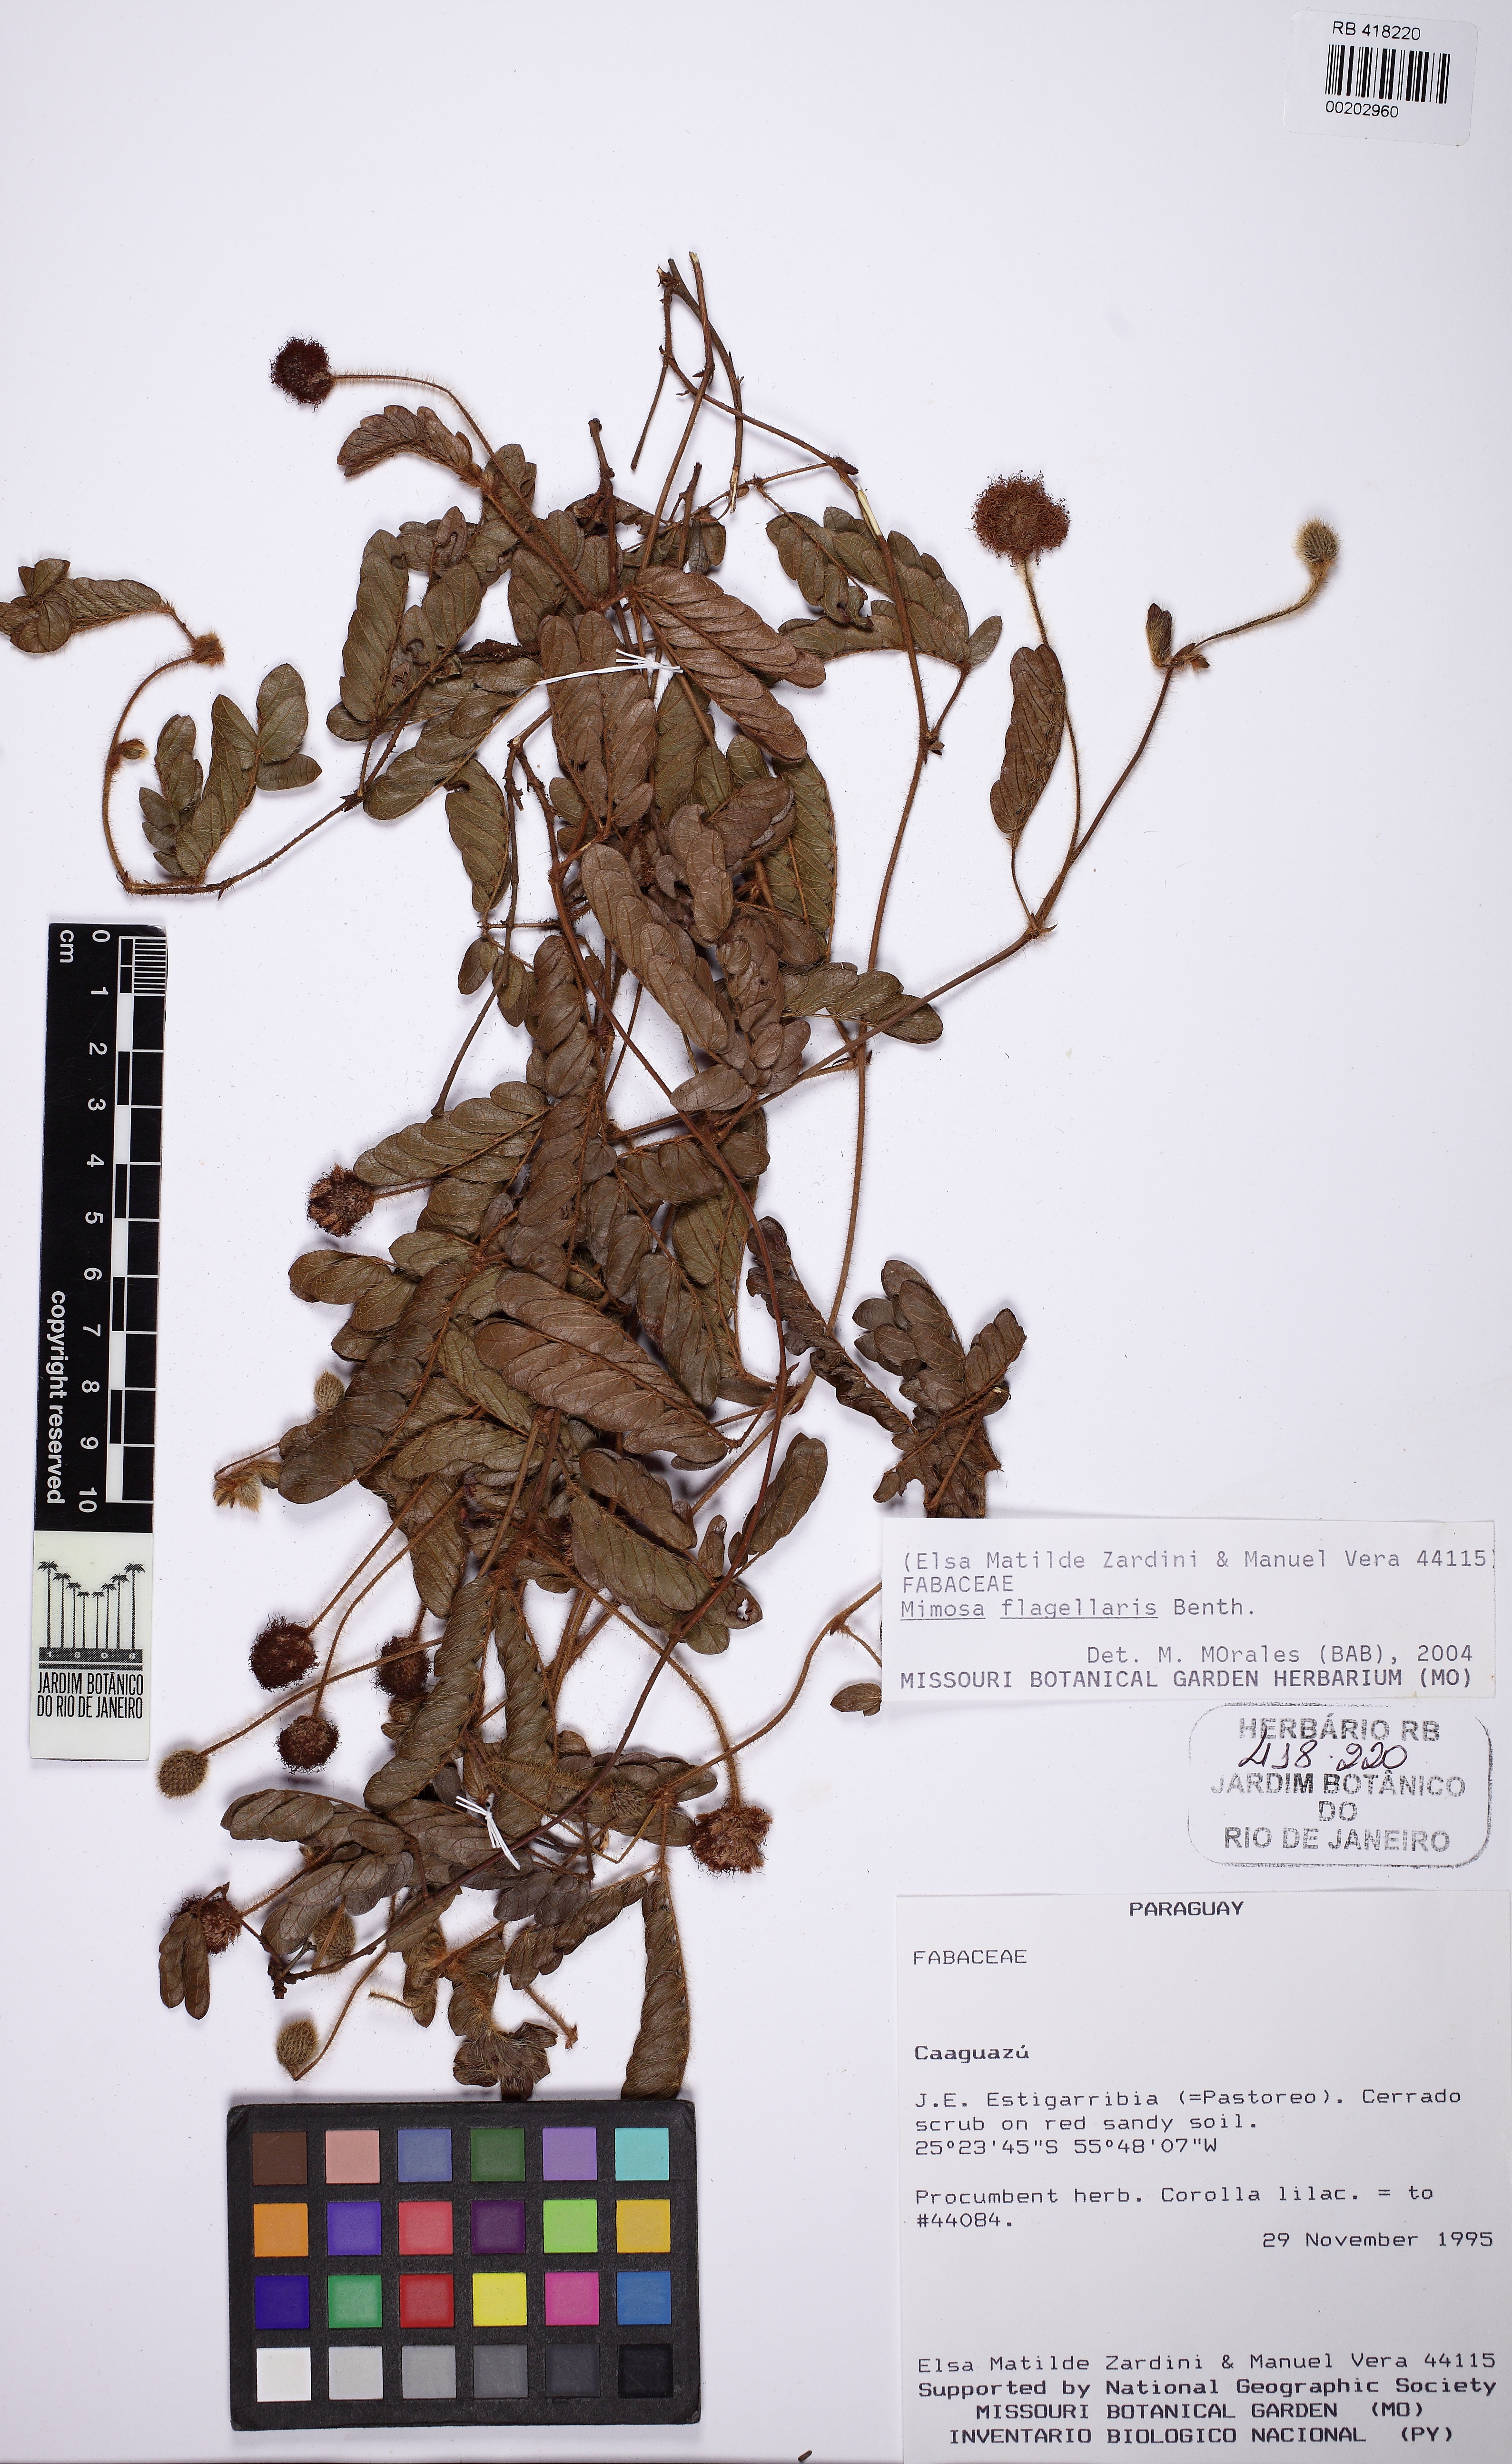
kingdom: Plantae
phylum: Tracheophyta
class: Magnoliopsida
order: Fabales
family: Fabaceae
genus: Mimosa
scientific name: Mimosa flagellaris
